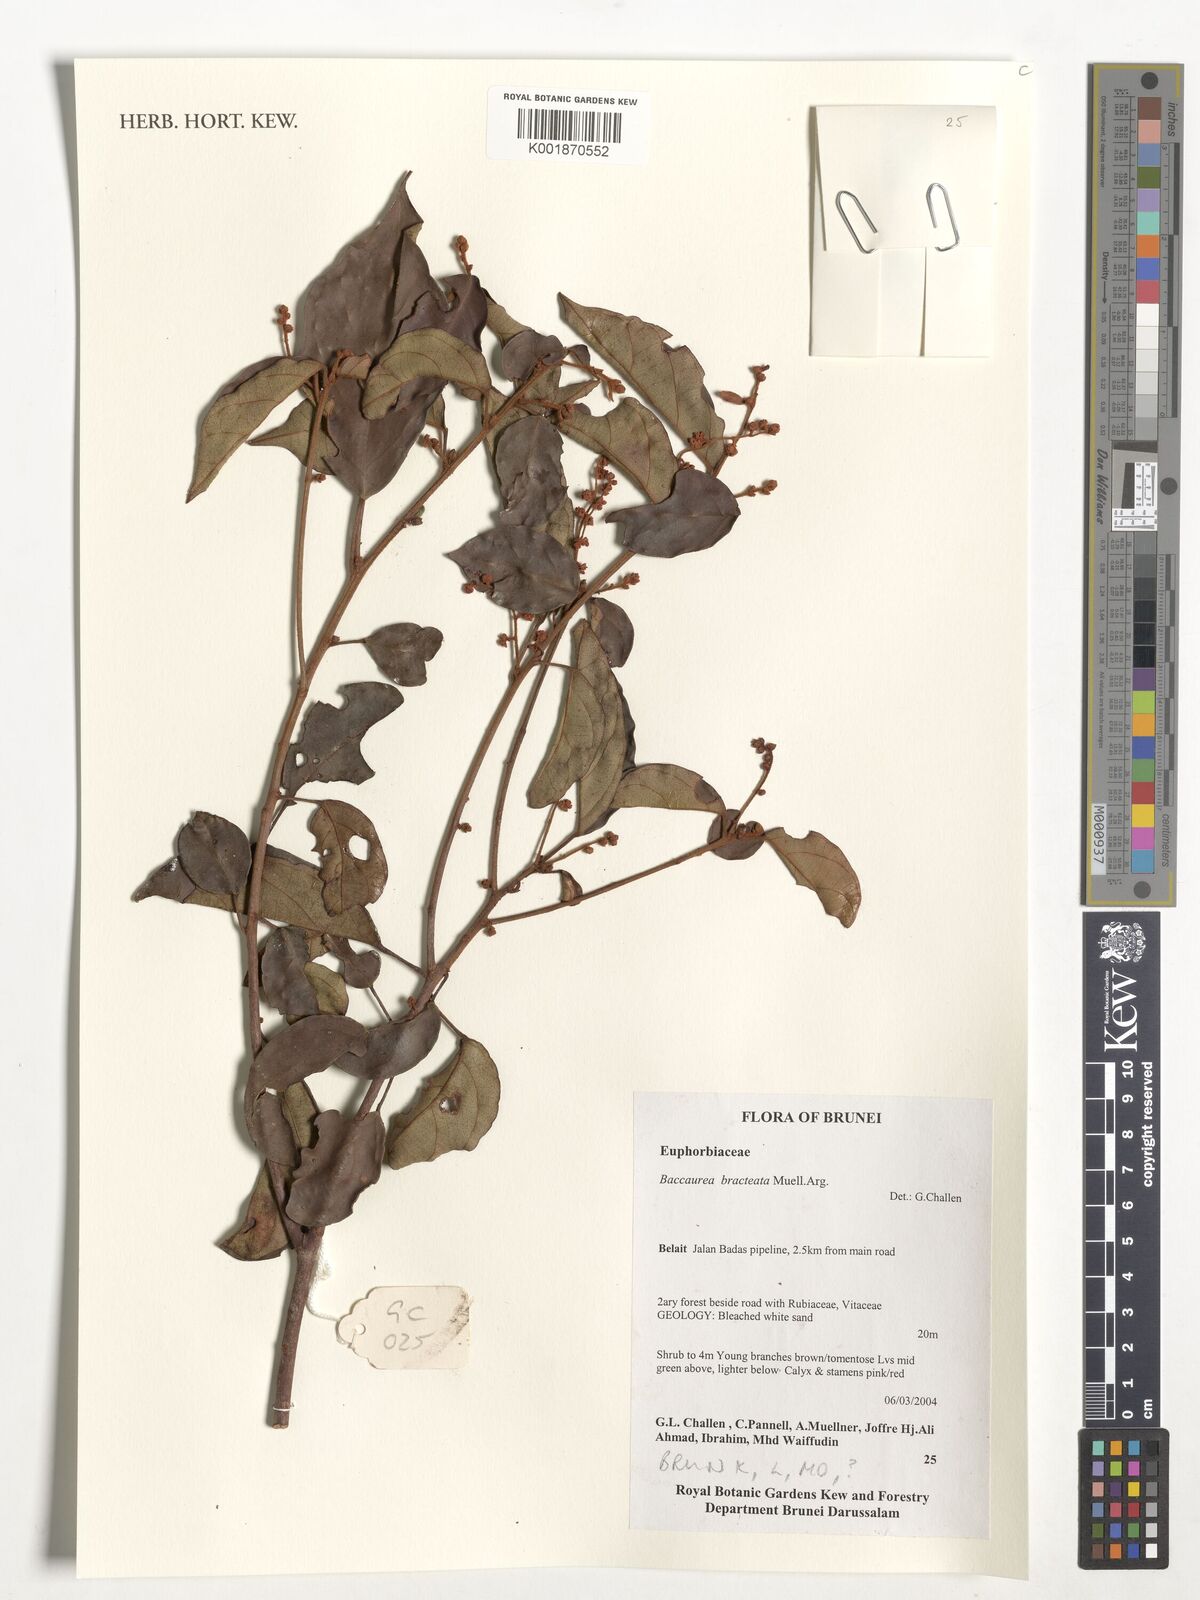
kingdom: Plantae
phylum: Tracheophyta
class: Magnoliopsida
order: Malpighiales
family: Phyllanthaceae
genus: Baccaurea
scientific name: Baccaurea bracteata
